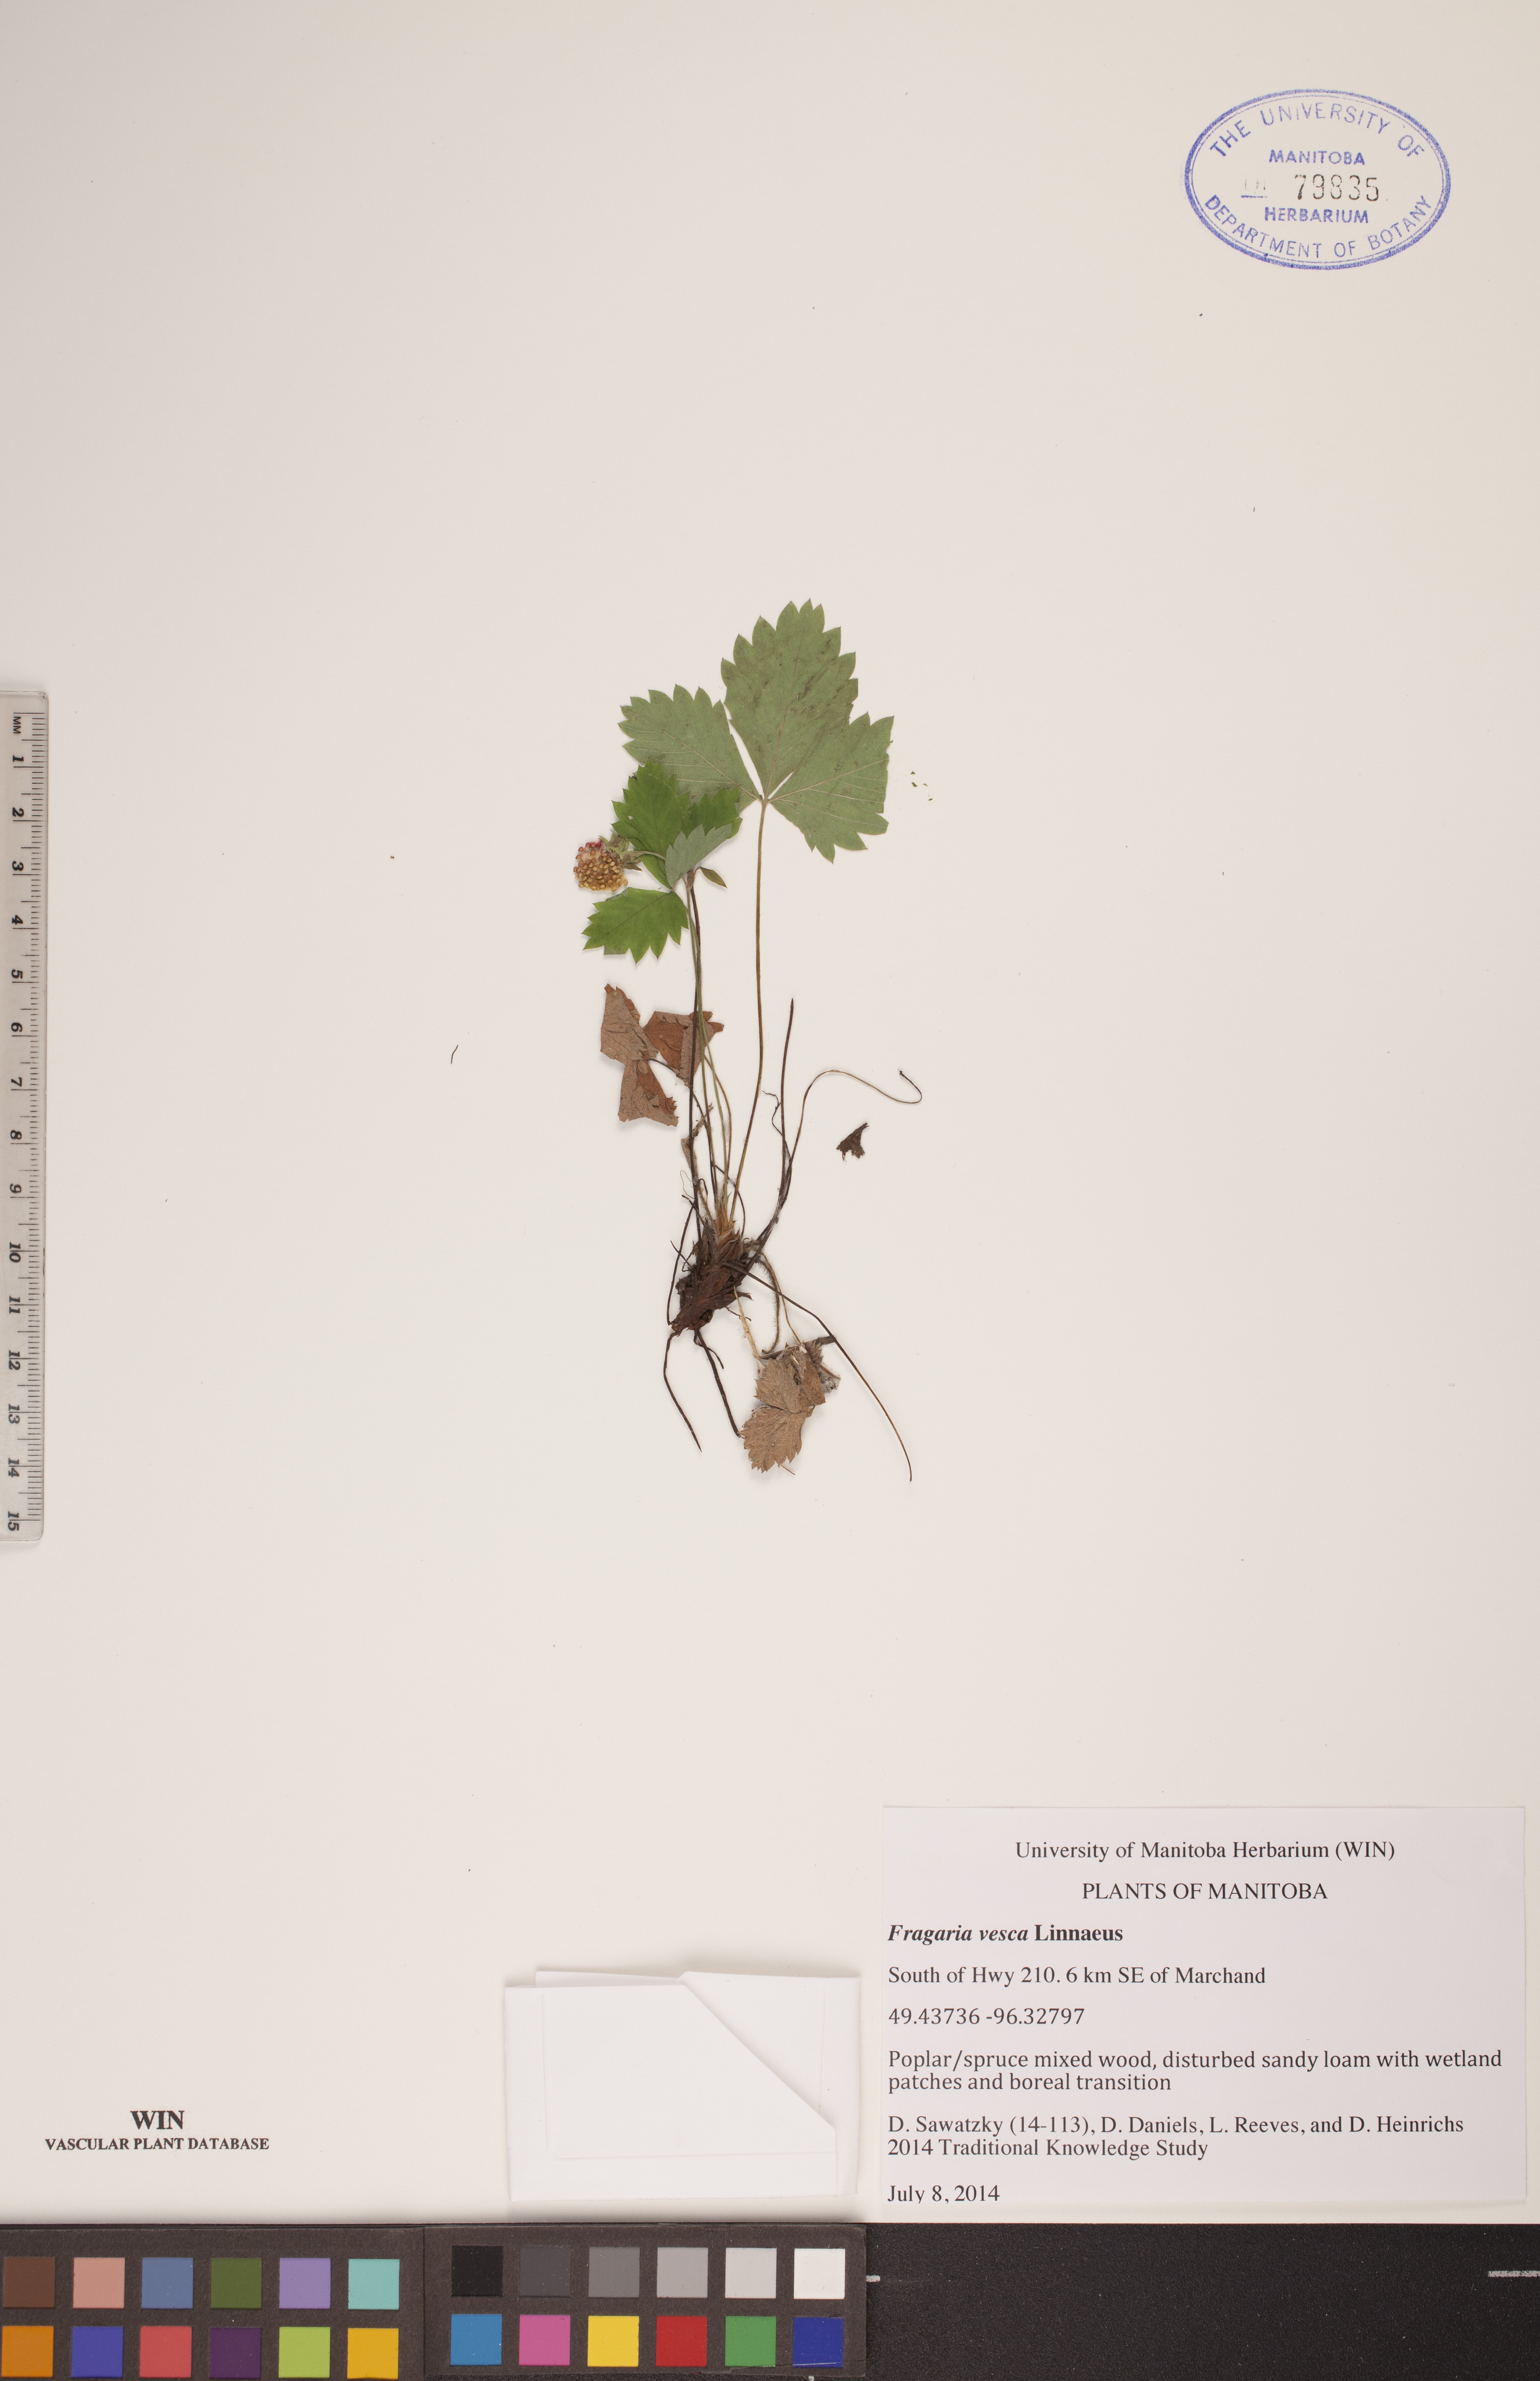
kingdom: Plantae
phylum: Tracheophyta
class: Magnoliopsida
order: Rosales
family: Rosaceae
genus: Fragaria
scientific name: Fragaria vesca
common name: Wild strawberry
